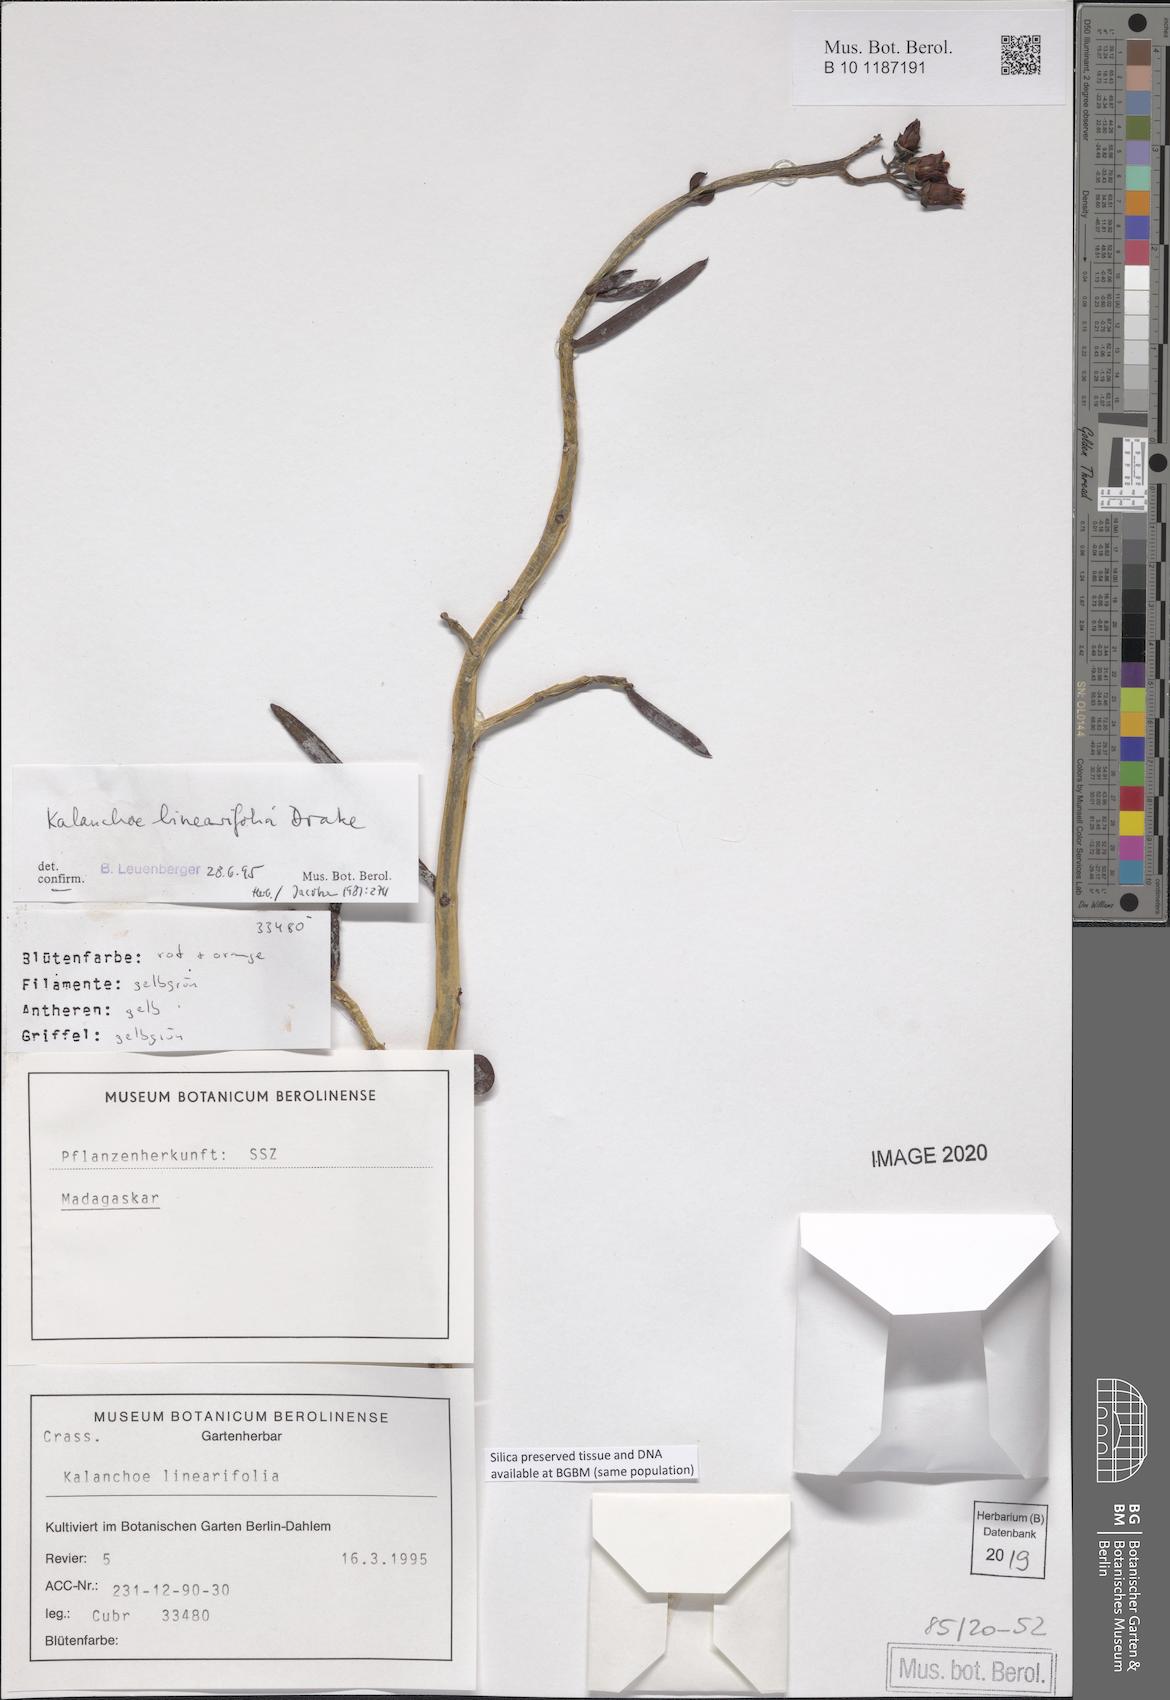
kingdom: Plantae
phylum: Tracheophyta
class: Magnoliopsida
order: Saxifragales
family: Crassulaceae
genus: Kalanchoe
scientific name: Kalanchoe linearifolia
